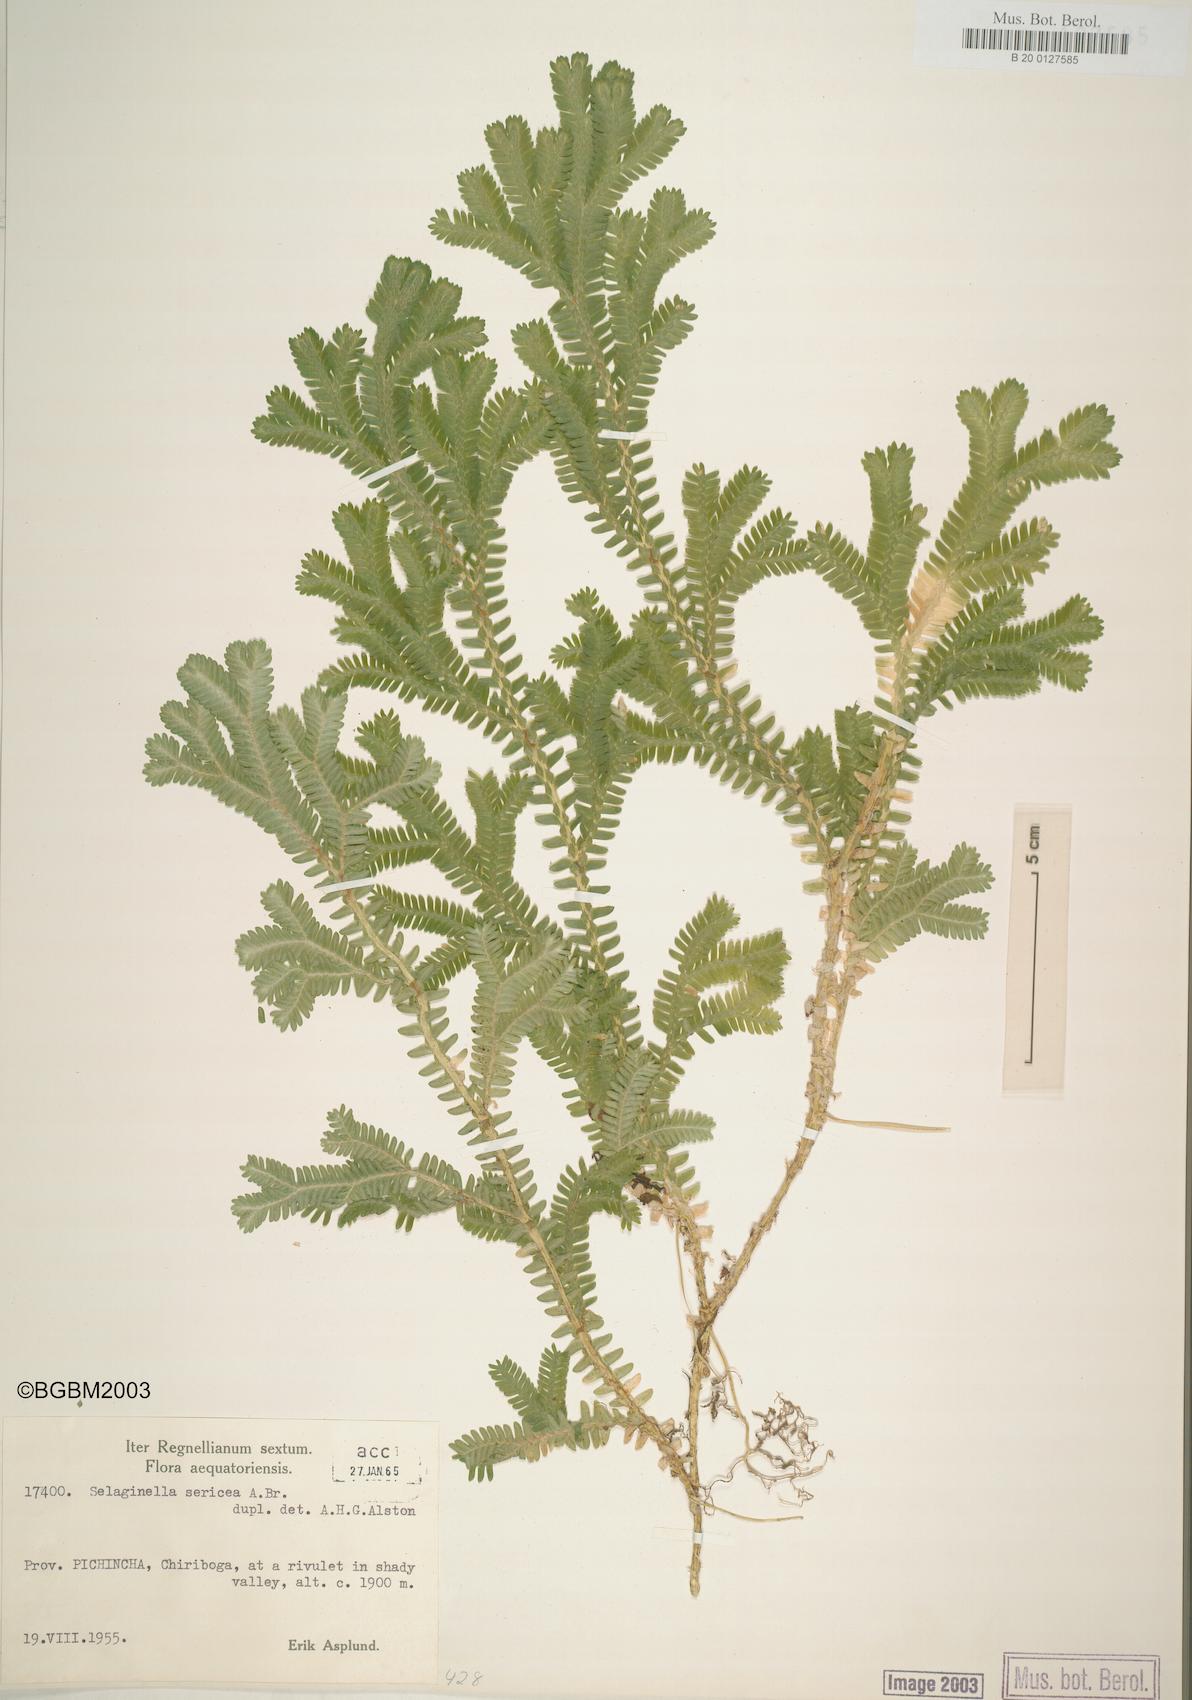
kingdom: Plantae
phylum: Tracheophyta
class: Lycopodiopsida
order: Selaginellales
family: Selaginellaceae
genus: Selaginella
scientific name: Selaginella sericea
